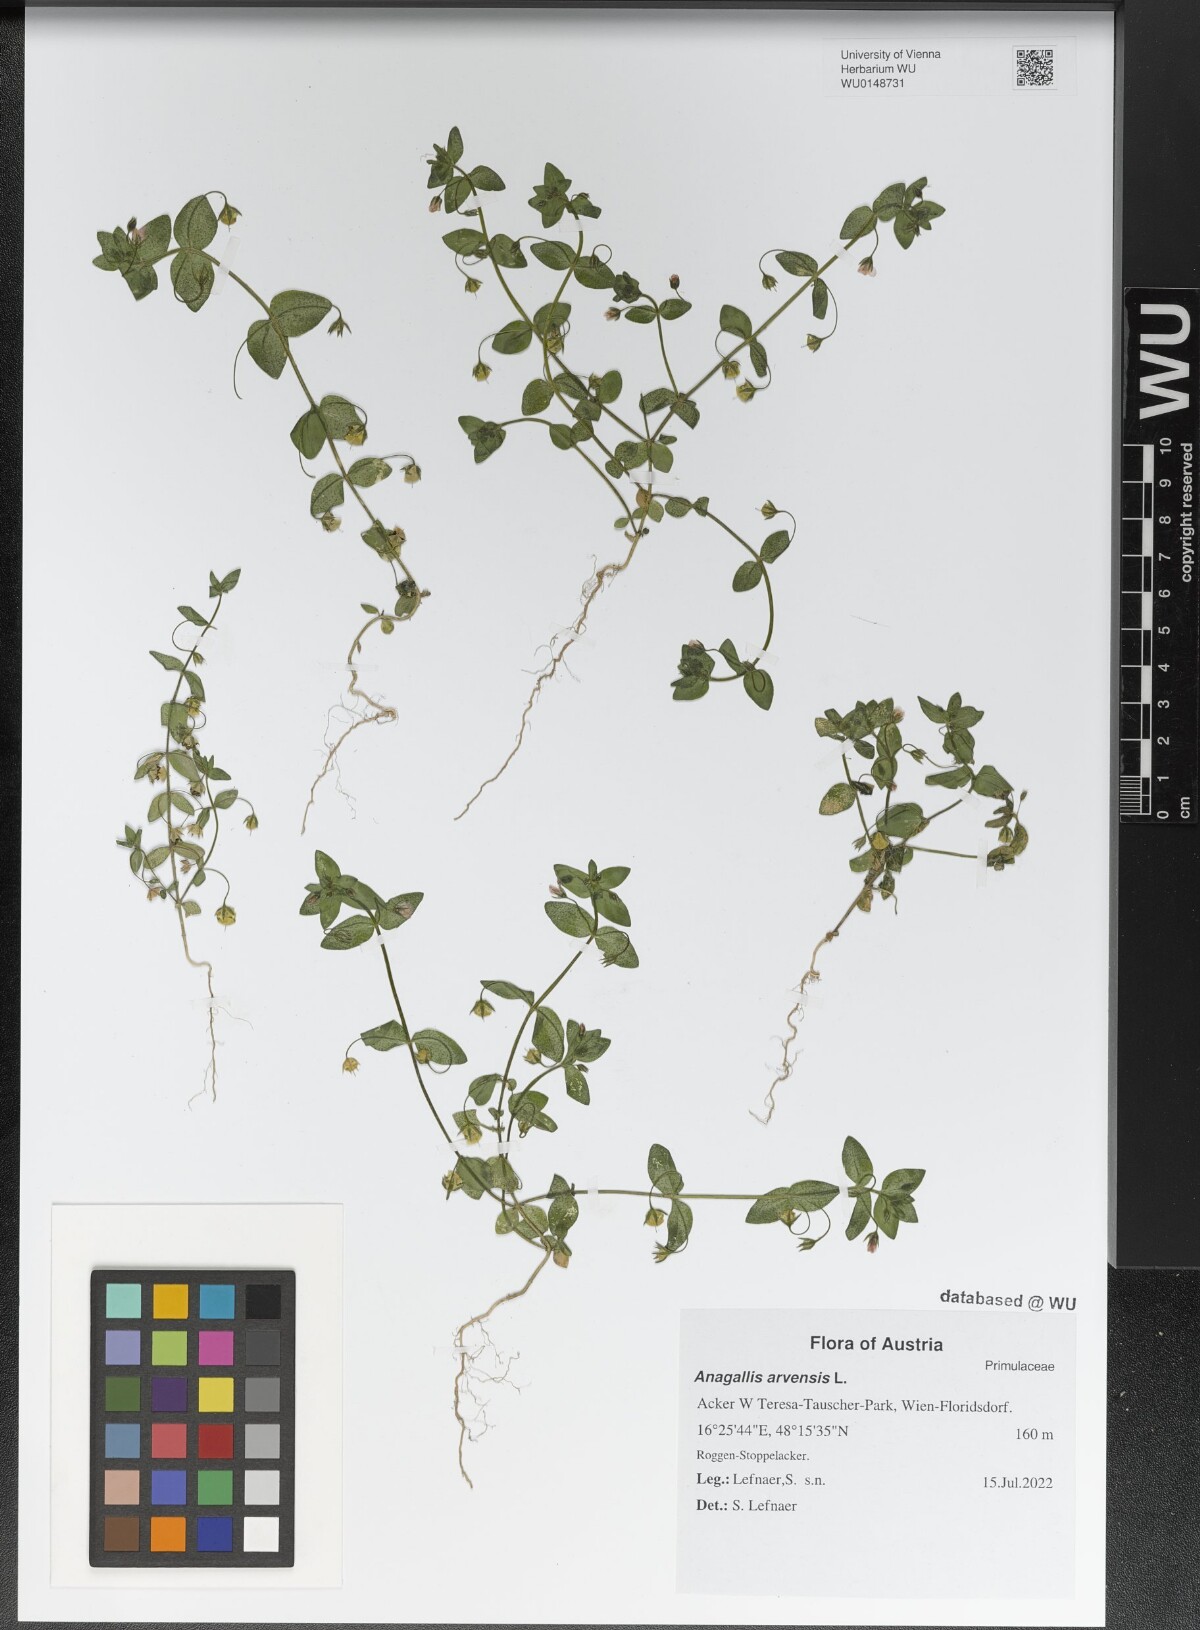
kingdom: Plantae
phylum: Tracheophyta
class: Magnoliopsida
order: Ericales
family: Primulaceae
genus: Lysimachia
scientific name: Lysimachia arvensis
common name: Scarlet pimpernel
